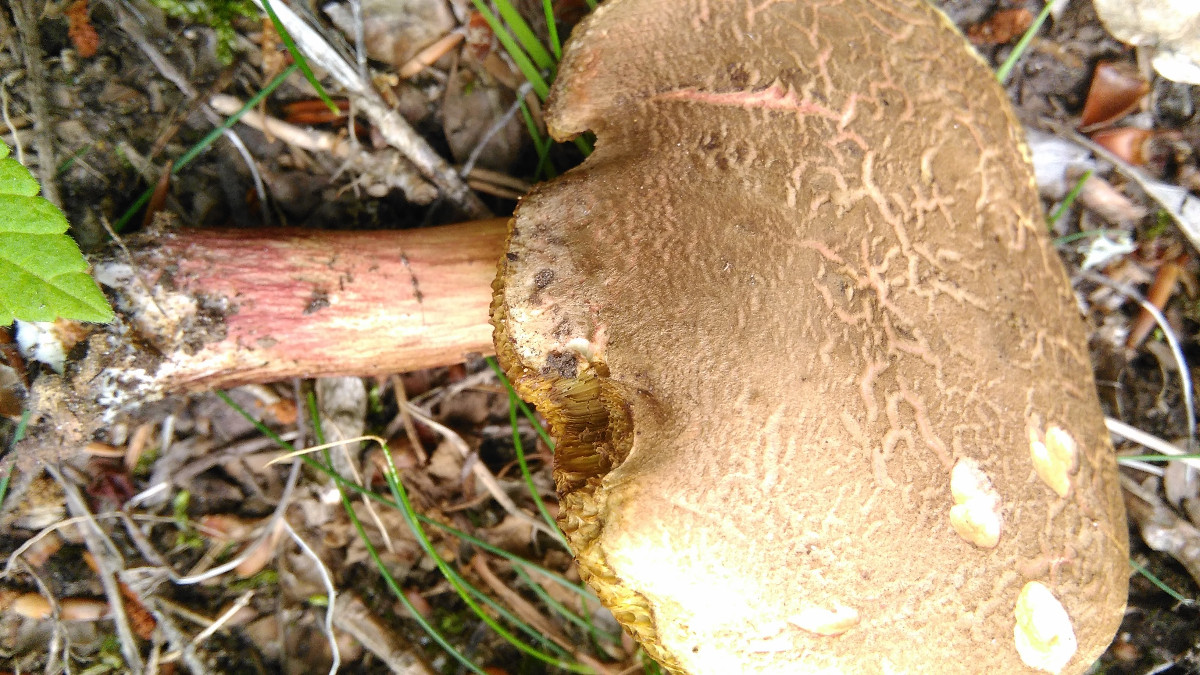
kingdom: Fungi
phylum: Basidiomycota
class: Agaricomycetes
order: Boletales
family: Boletaceae
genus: Xerocomellus
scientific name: Xerocomellus chrysenteron
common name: rødsprukken rørhat
